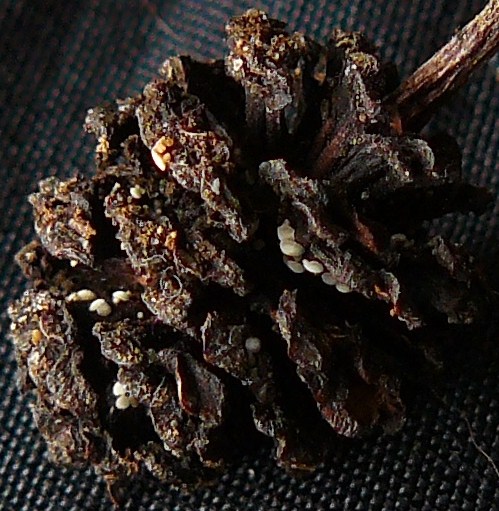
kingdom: Fungi
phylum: Ascomycota
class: Leotiomycetes
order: Helotiales
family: Pezizellaceae
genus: Calycina
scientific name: Calycina alniella
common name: ellekogle-stilkskive
